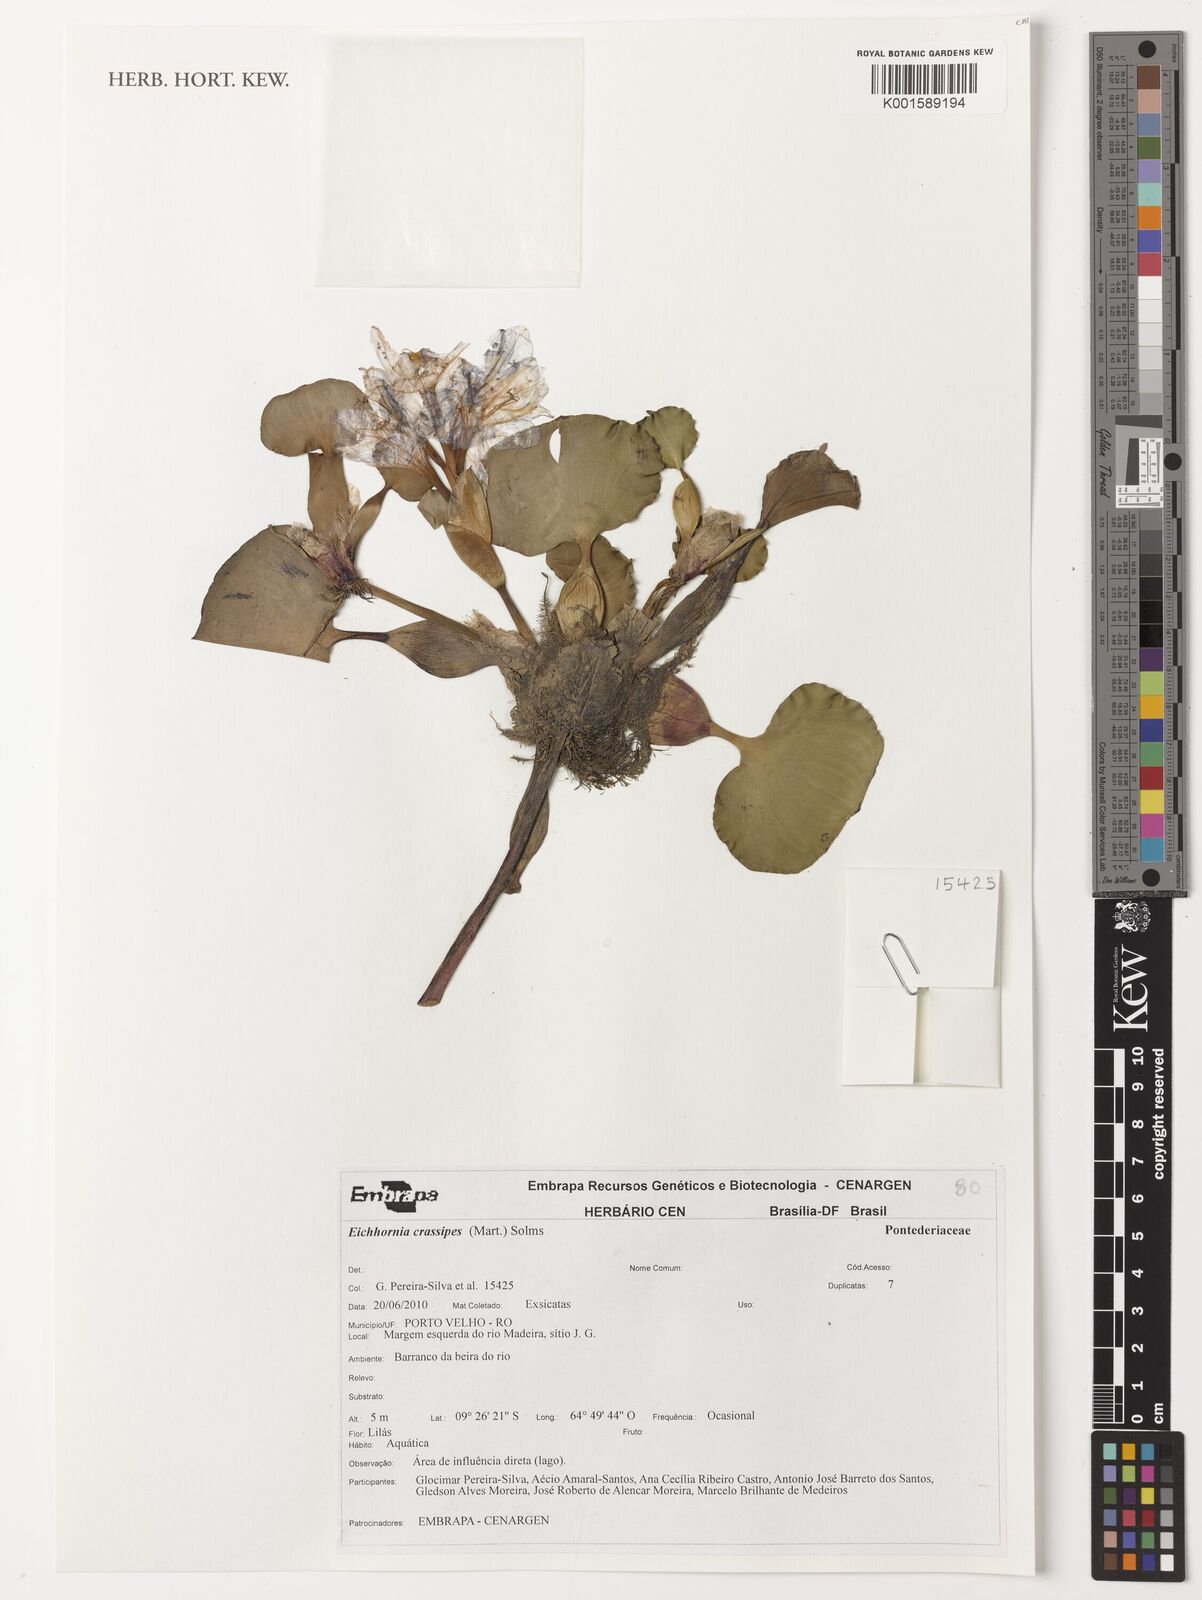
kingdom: Plantae
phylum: Tracheophyta
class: Liliopsida
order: Commelinales
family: Pontederiaceae
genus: Pontederia
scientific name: Pontederia crassipes
